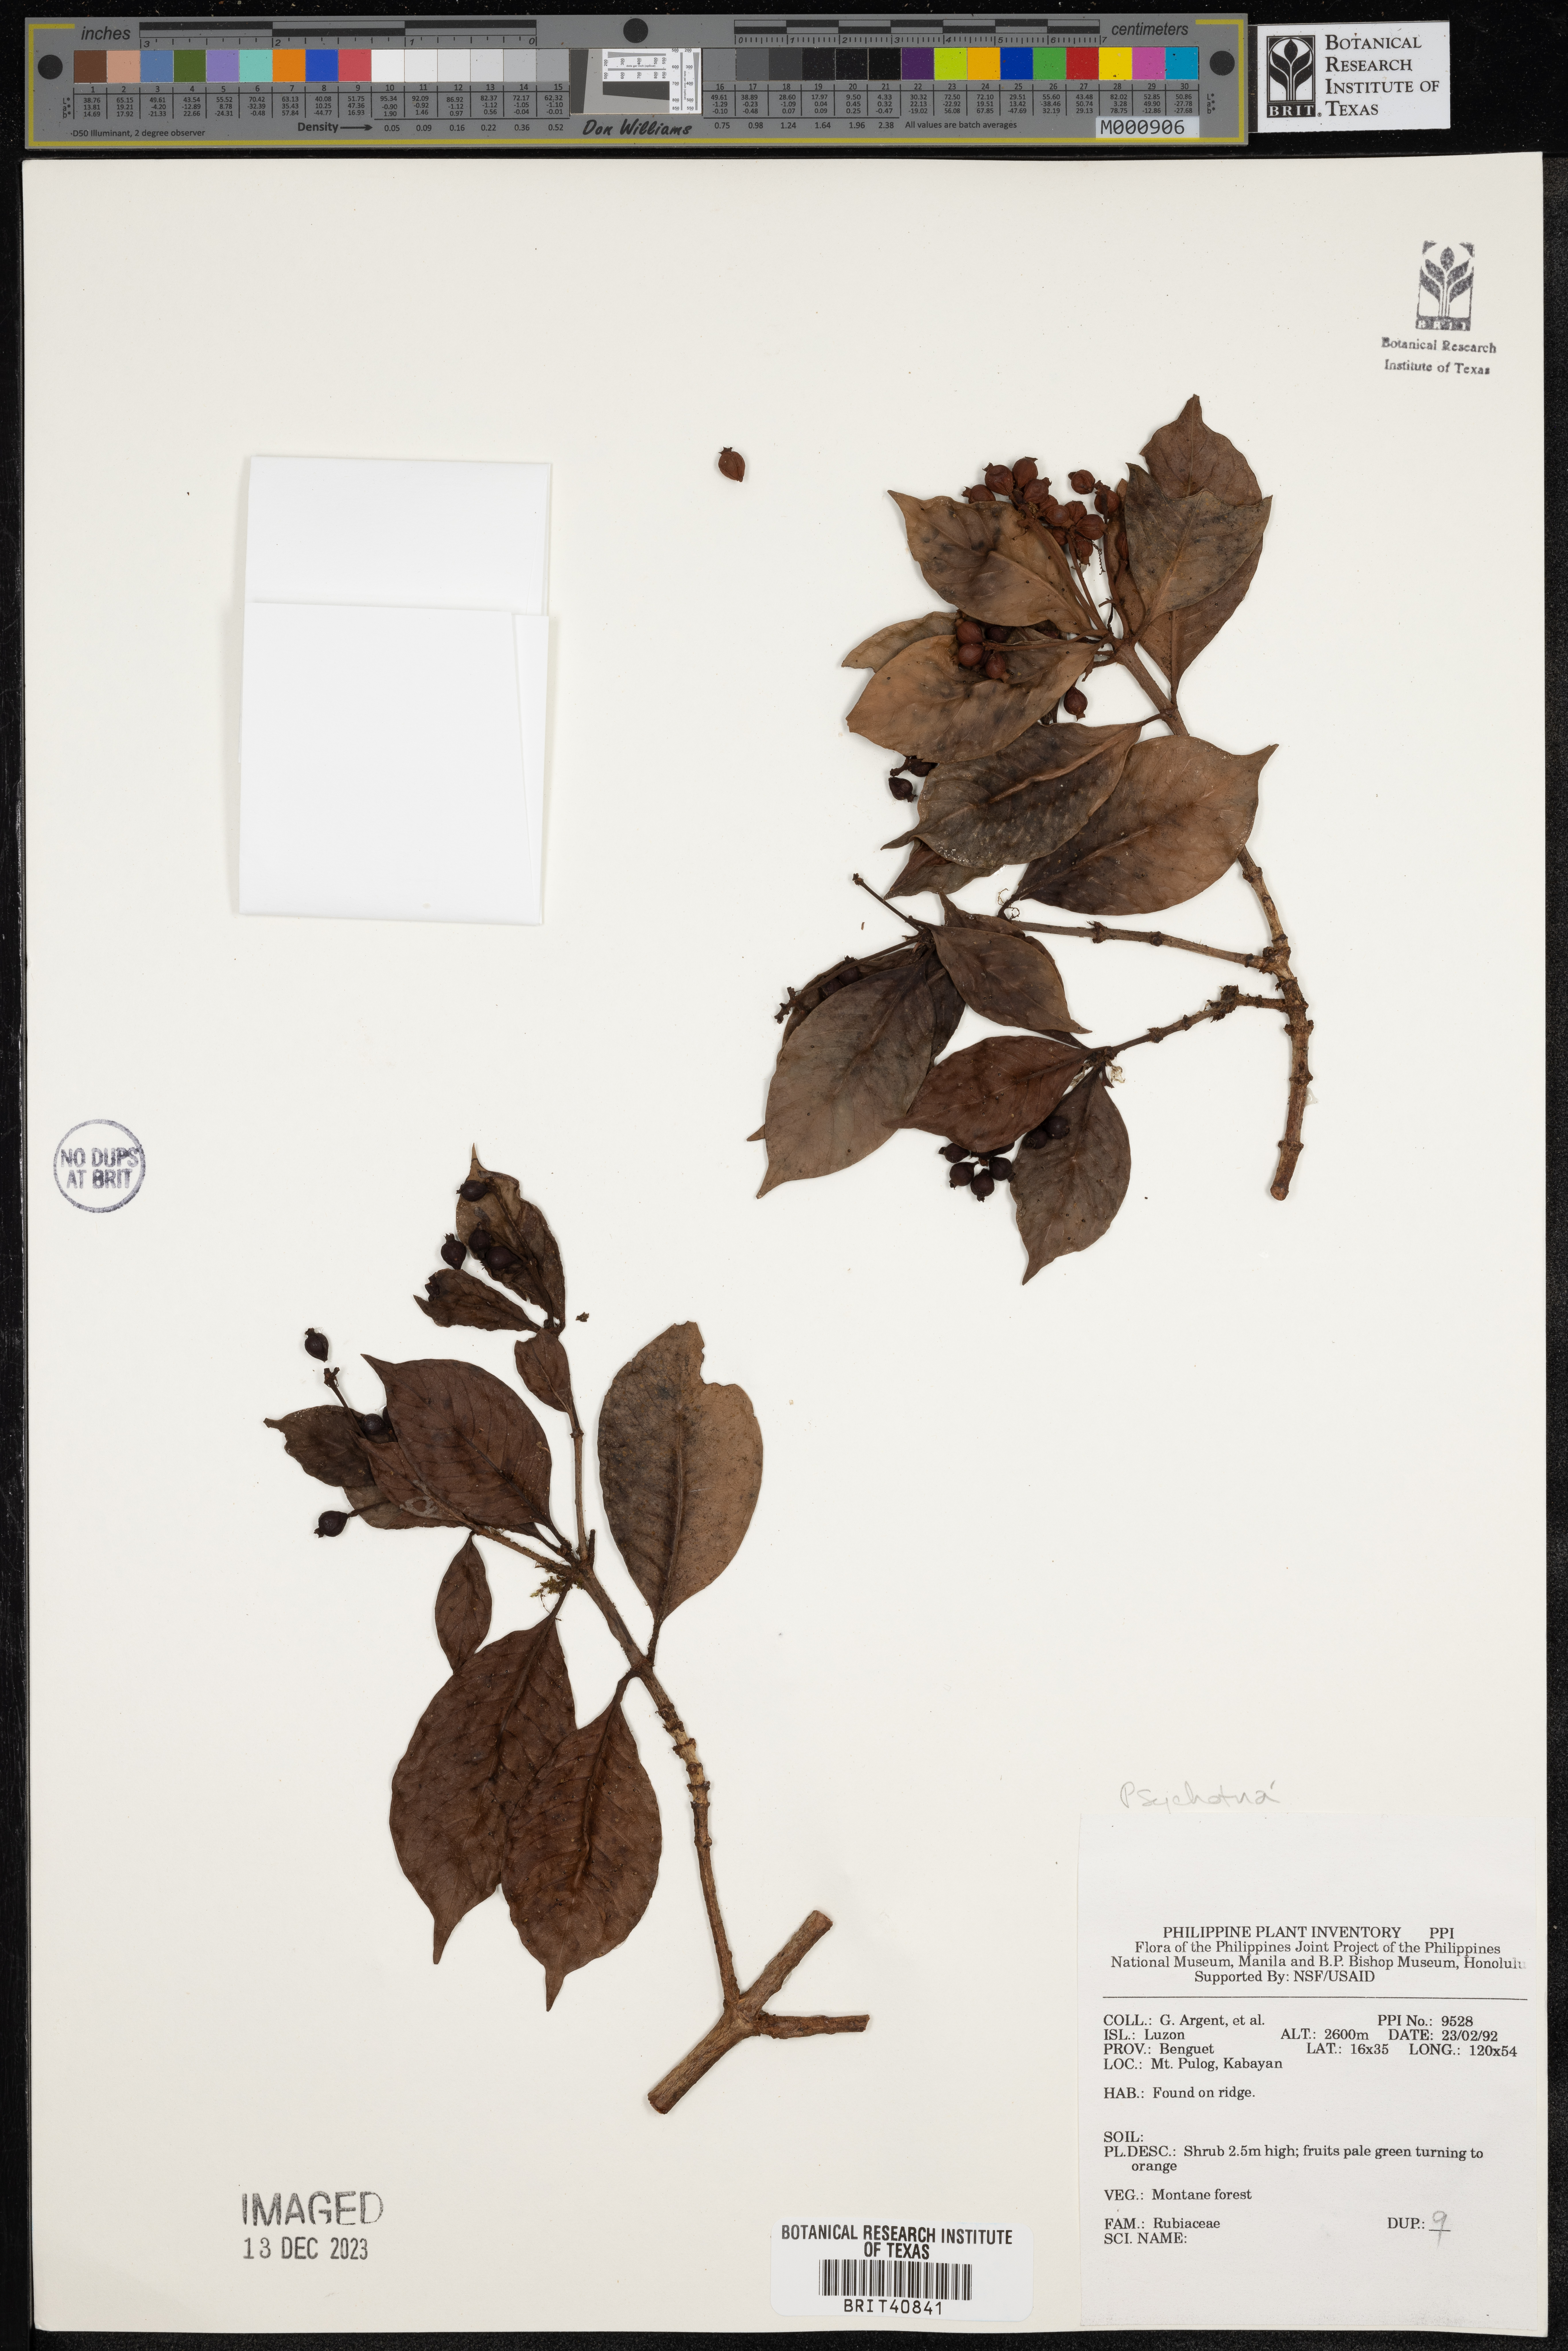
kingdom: Plantae
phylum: Tracheophyta
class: Magnoliopsida
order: Gentianales
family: Rubiaceae
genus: Psychotria
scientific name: Psychotria
